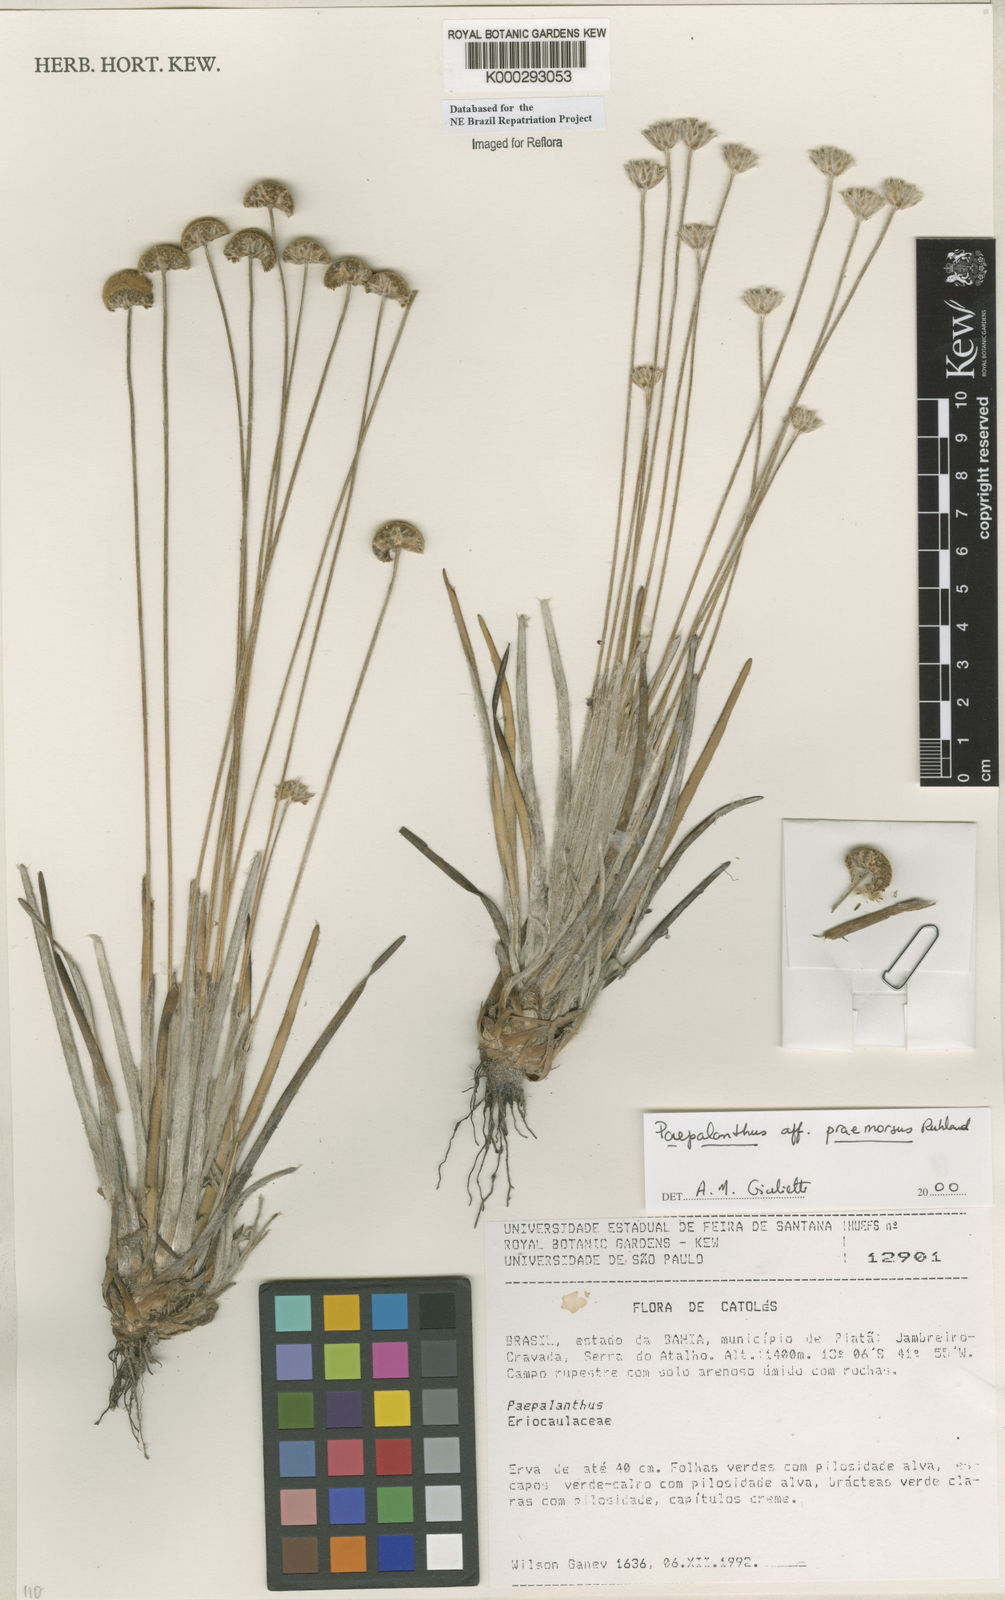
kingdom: Plantae
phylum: Tracheophyta
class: Liliopsida
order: Poales
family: Eriocaulaceae
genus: Paepalanthus
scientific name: Paepalanthus praemorsus
